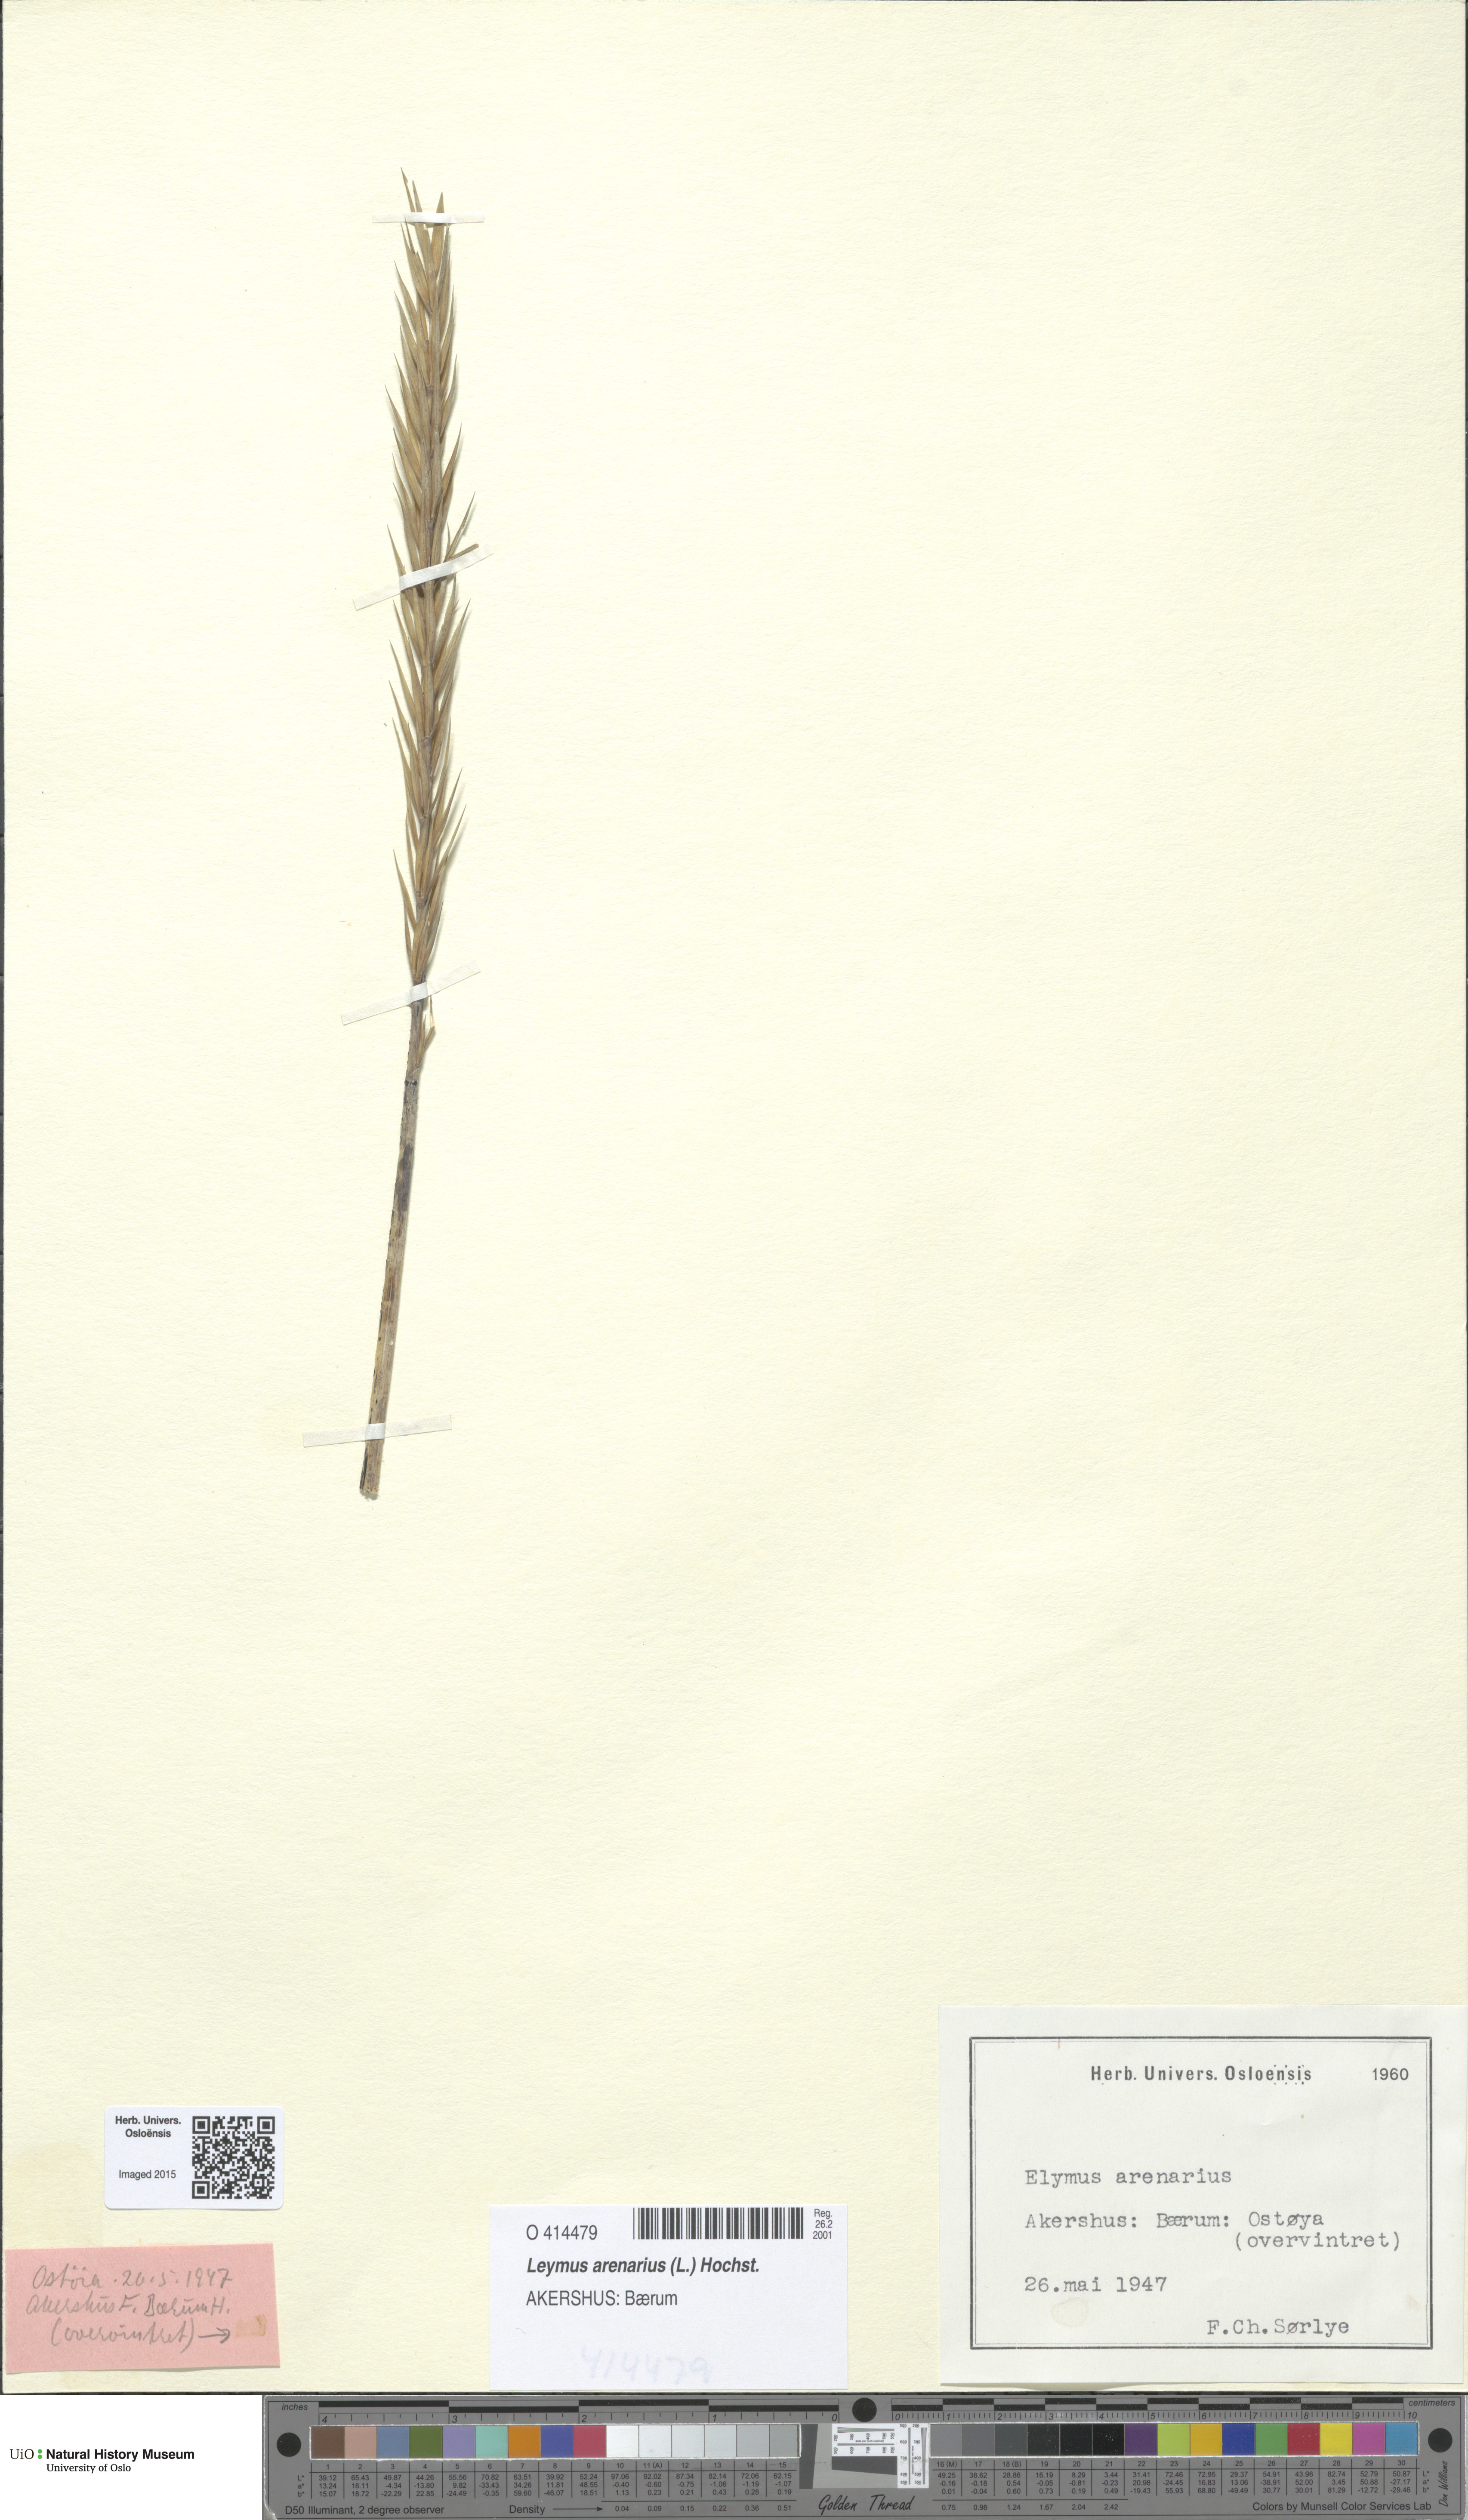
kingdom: Plantae
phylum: Tracheophyta
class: Liliopsida
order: Poales
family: Poaceae
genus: Leymus
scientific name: Leymus arenarius
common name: Lyme-grass
